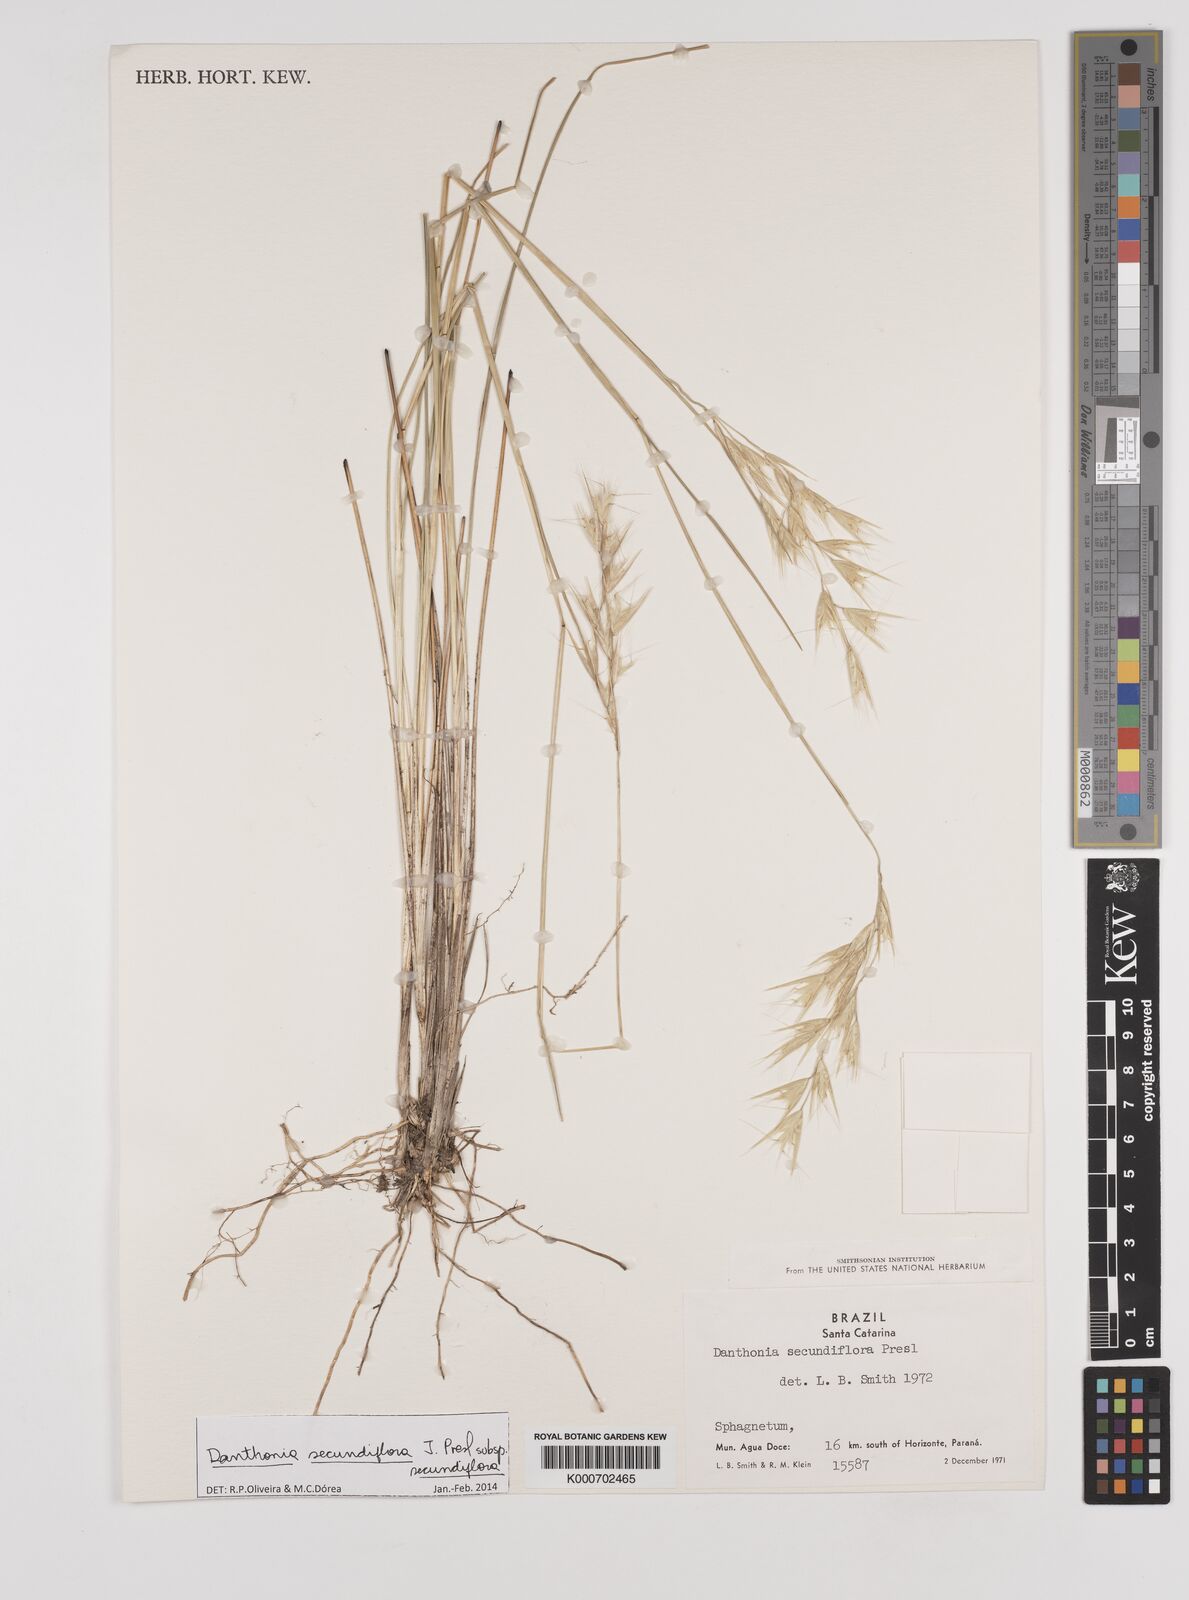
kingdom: Plantae
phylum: Tracheophyta
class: Liliopsida
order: Poales
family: Poaceae
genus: Danthonia
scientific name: Danthonia secundiflora
